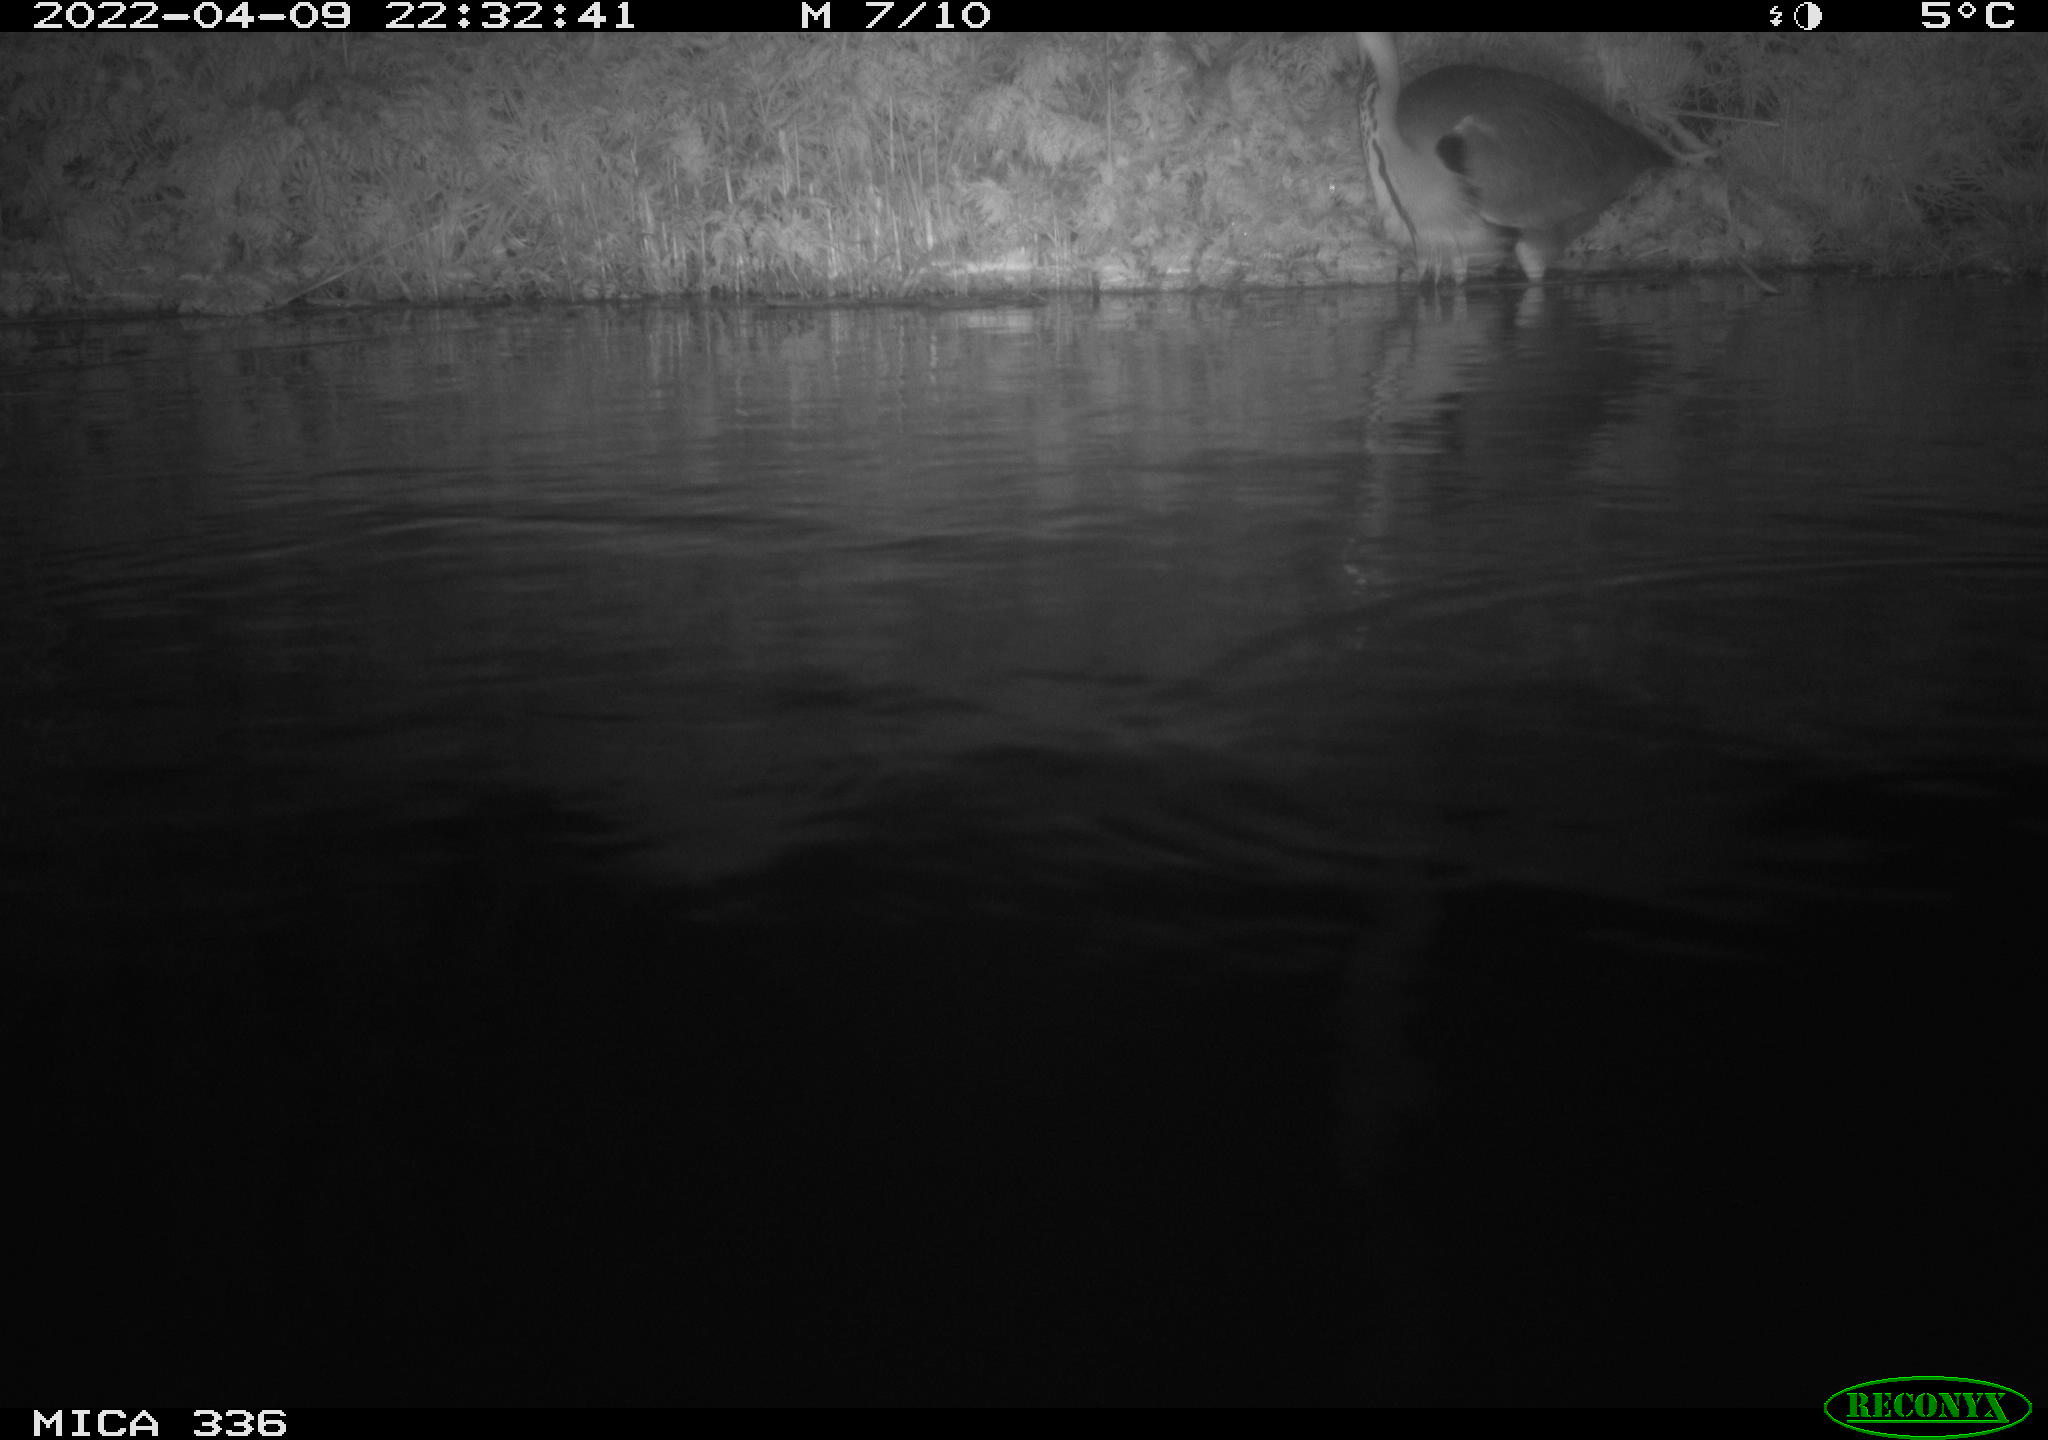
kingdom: Animalia
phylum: Chordata
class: Aves
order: Pelecaniformes
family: Ardeidae
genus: Ardea
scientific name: Ardea cinerea
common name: Grey heron
